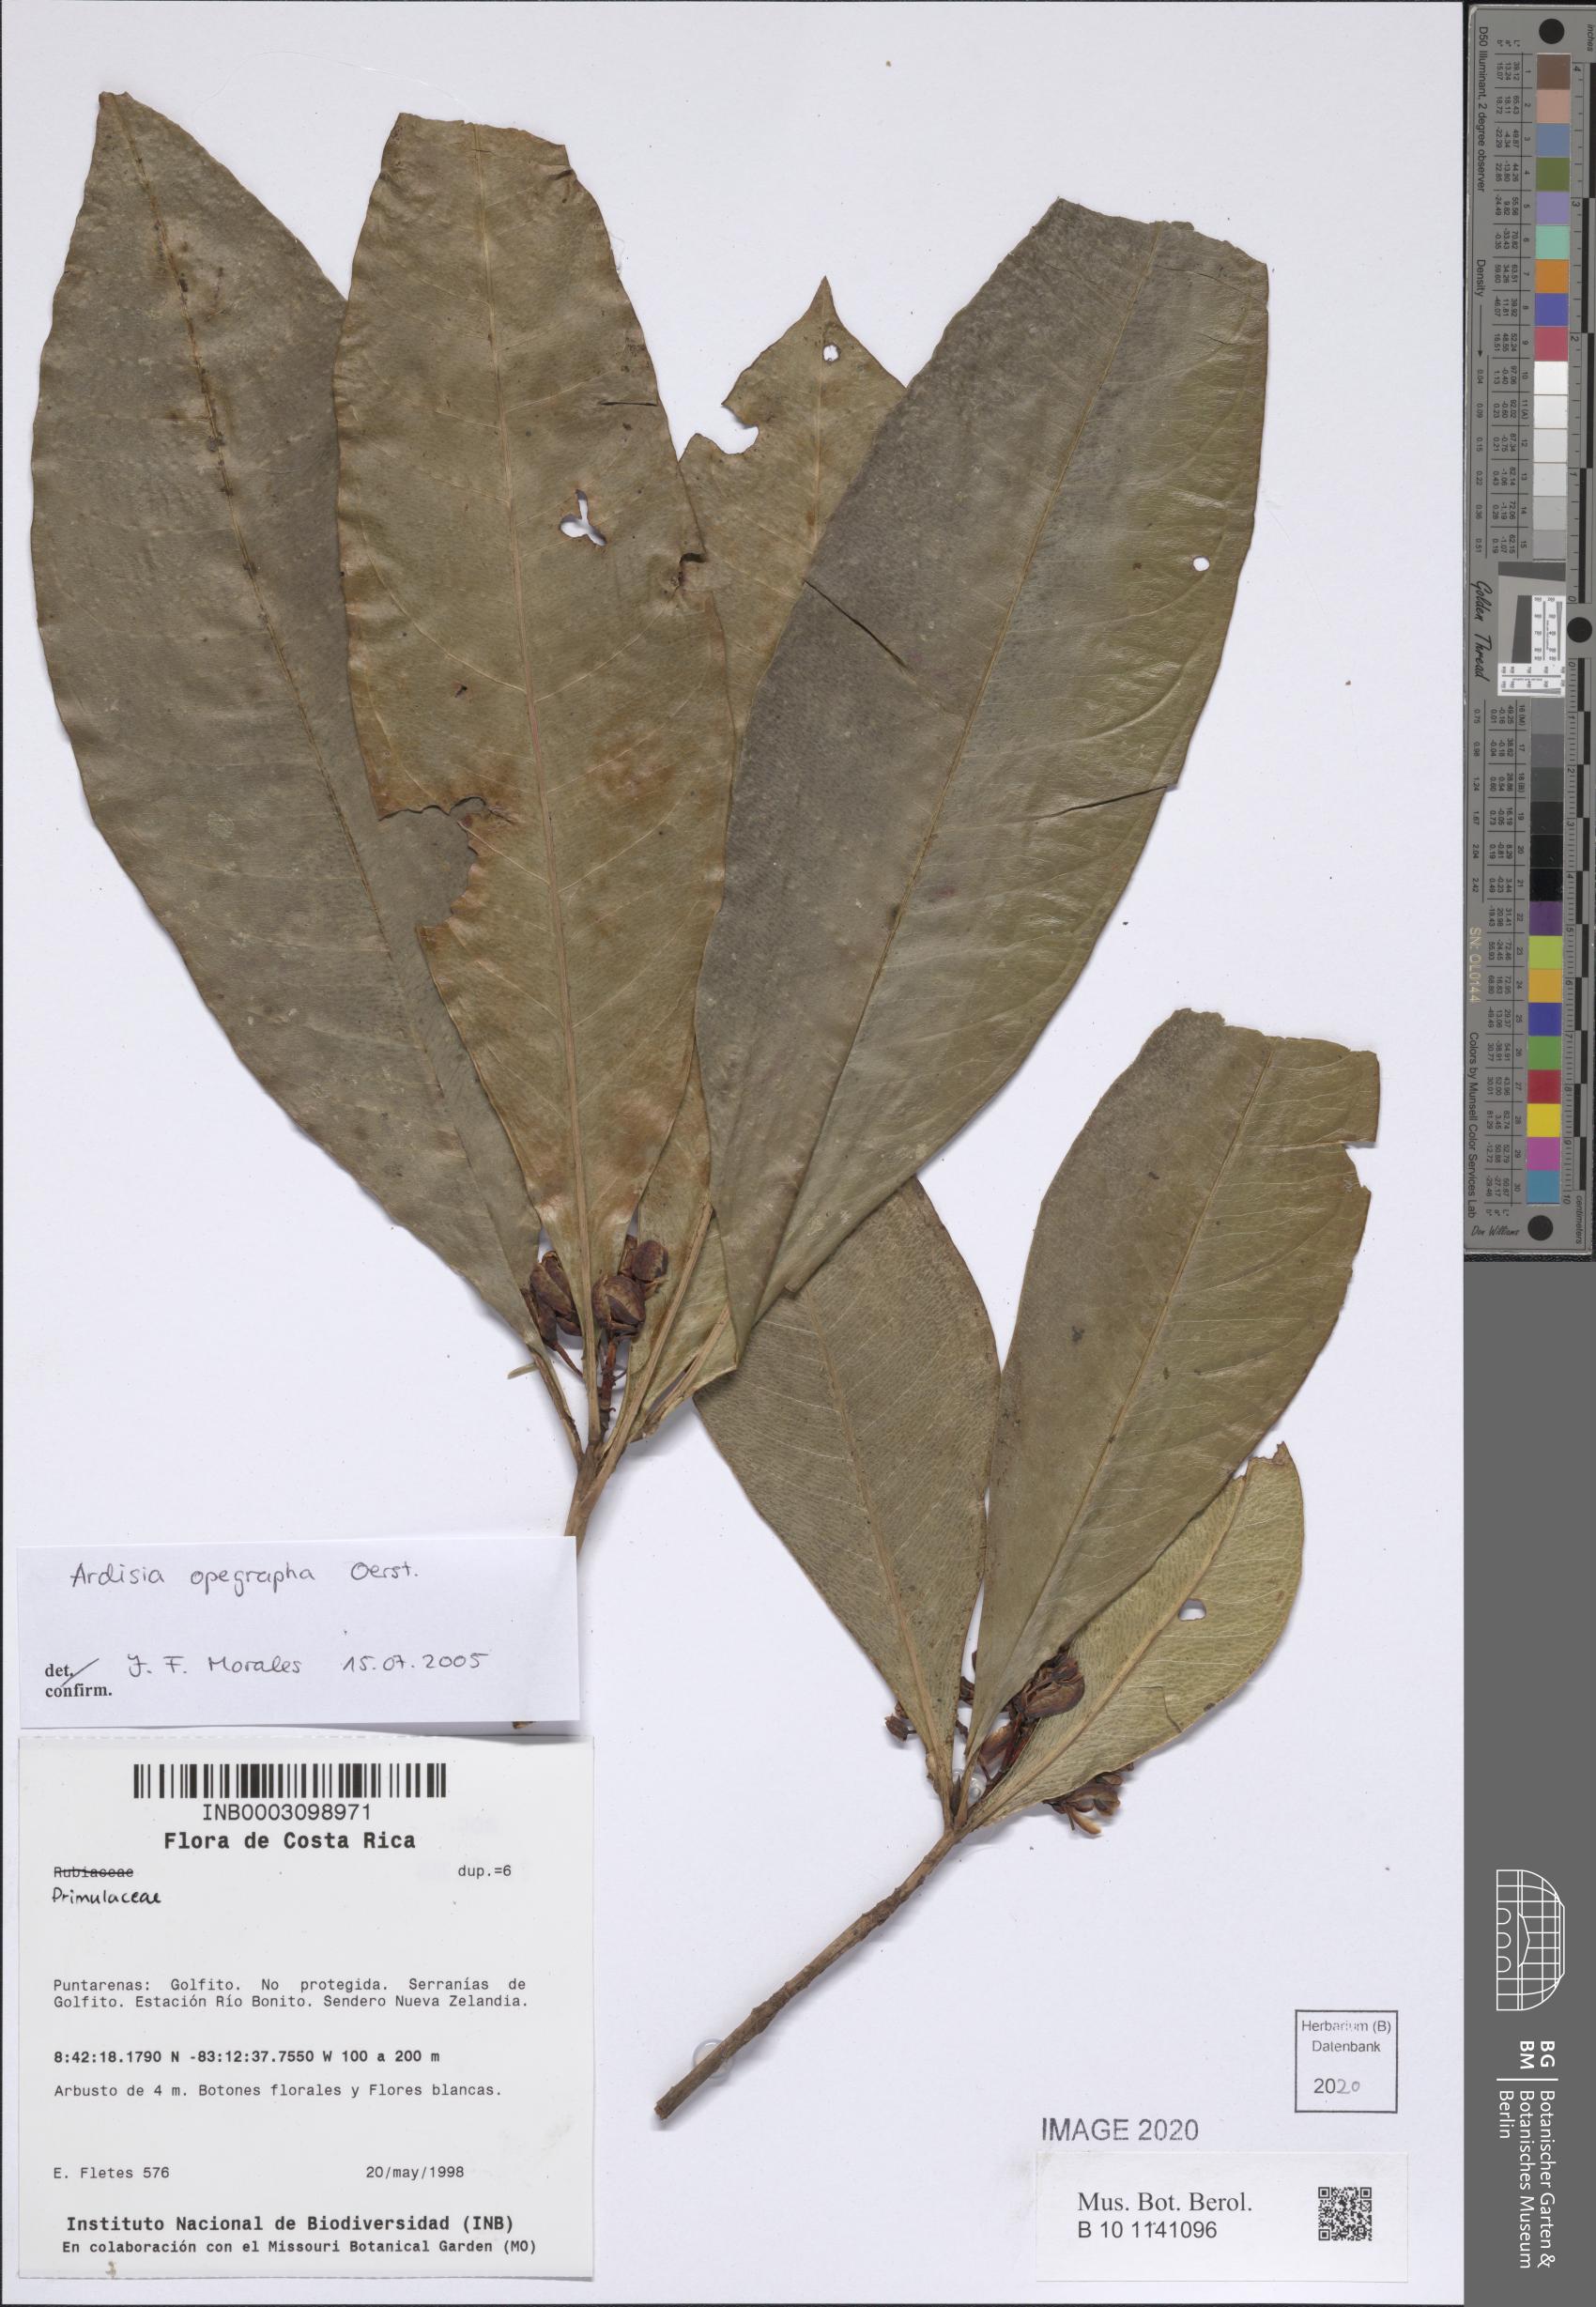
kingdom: Plantae
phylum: Tracheophyta
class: Magnoliopsida
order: Ericales
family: Primulaceae
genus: Ardisia
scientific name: Ardisia opegrapha
